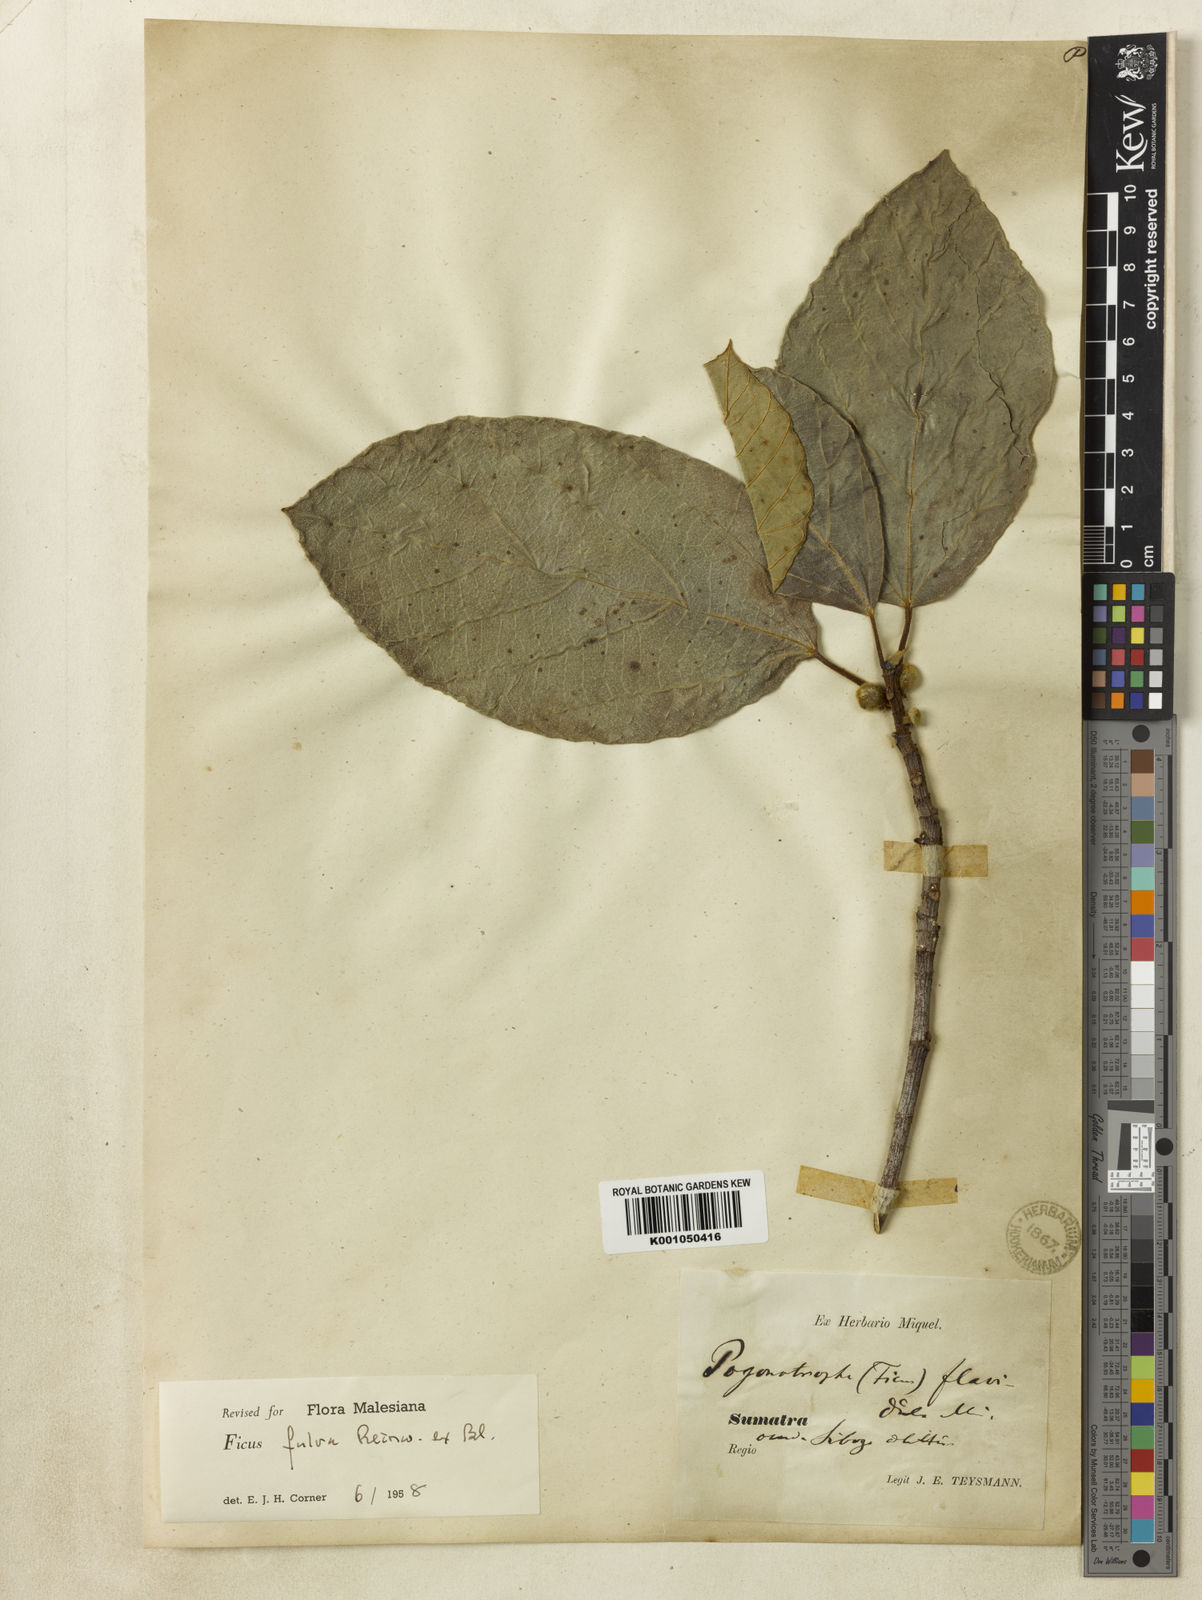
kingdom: Plantae
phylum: Tracheophyta
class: Magnoliopsida
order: Rosales
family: Moraceae
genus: Ficus
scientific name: Ficus fulva
